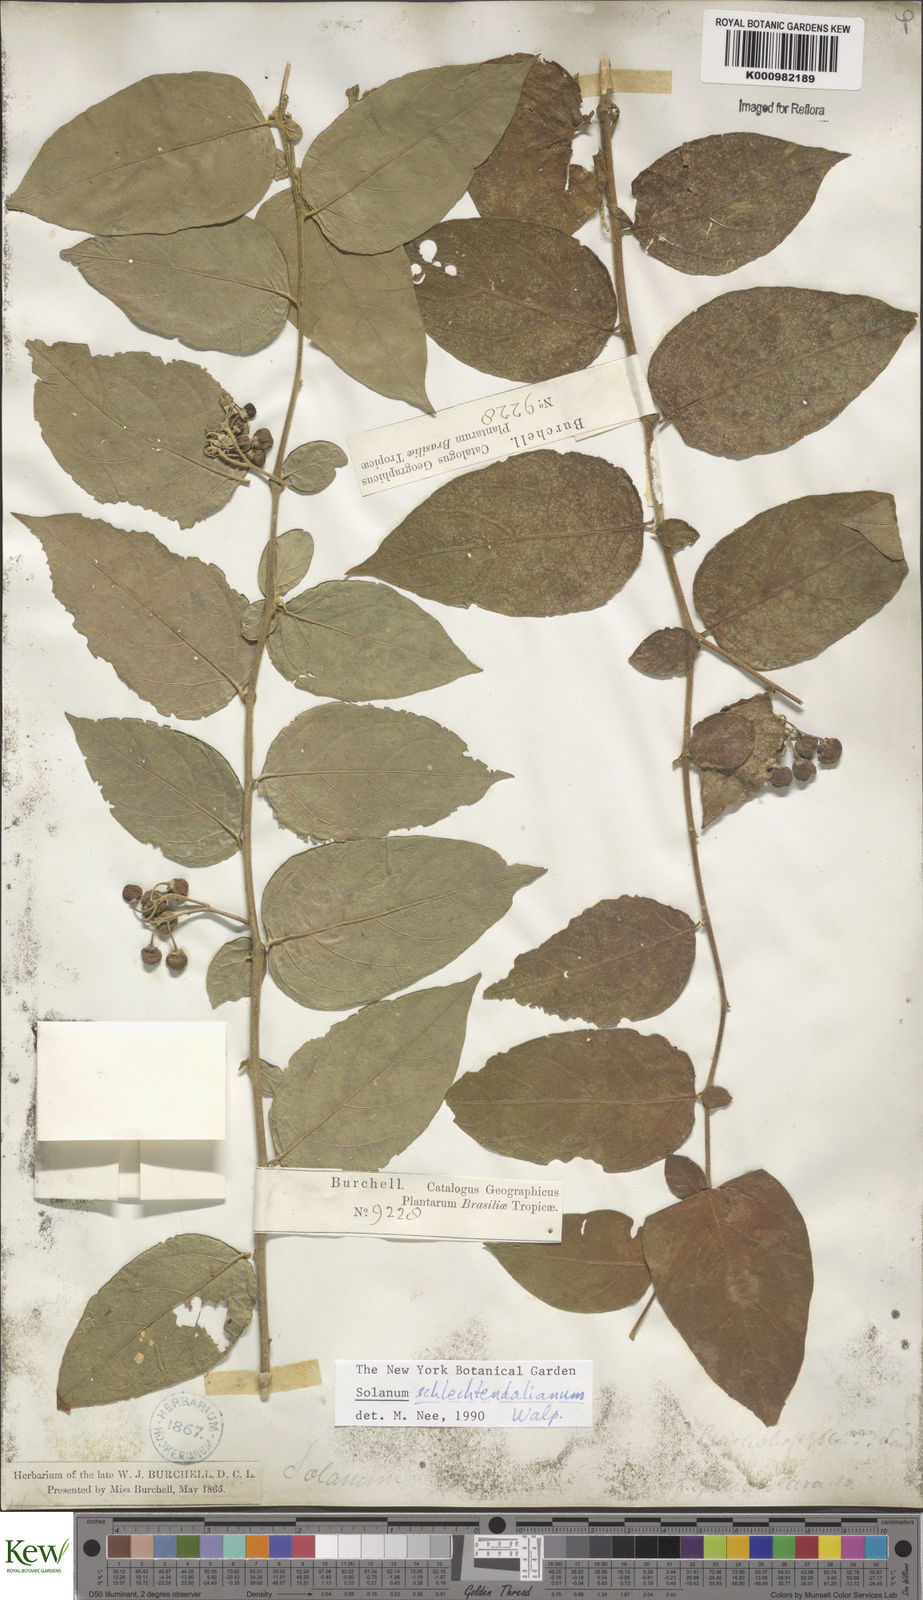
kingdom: Plantae
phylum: Tracheophyta
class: Magnoliopsida
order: Solanales
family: Solanaceae
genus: Solanum
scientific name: Solanum schlechtendalianum
